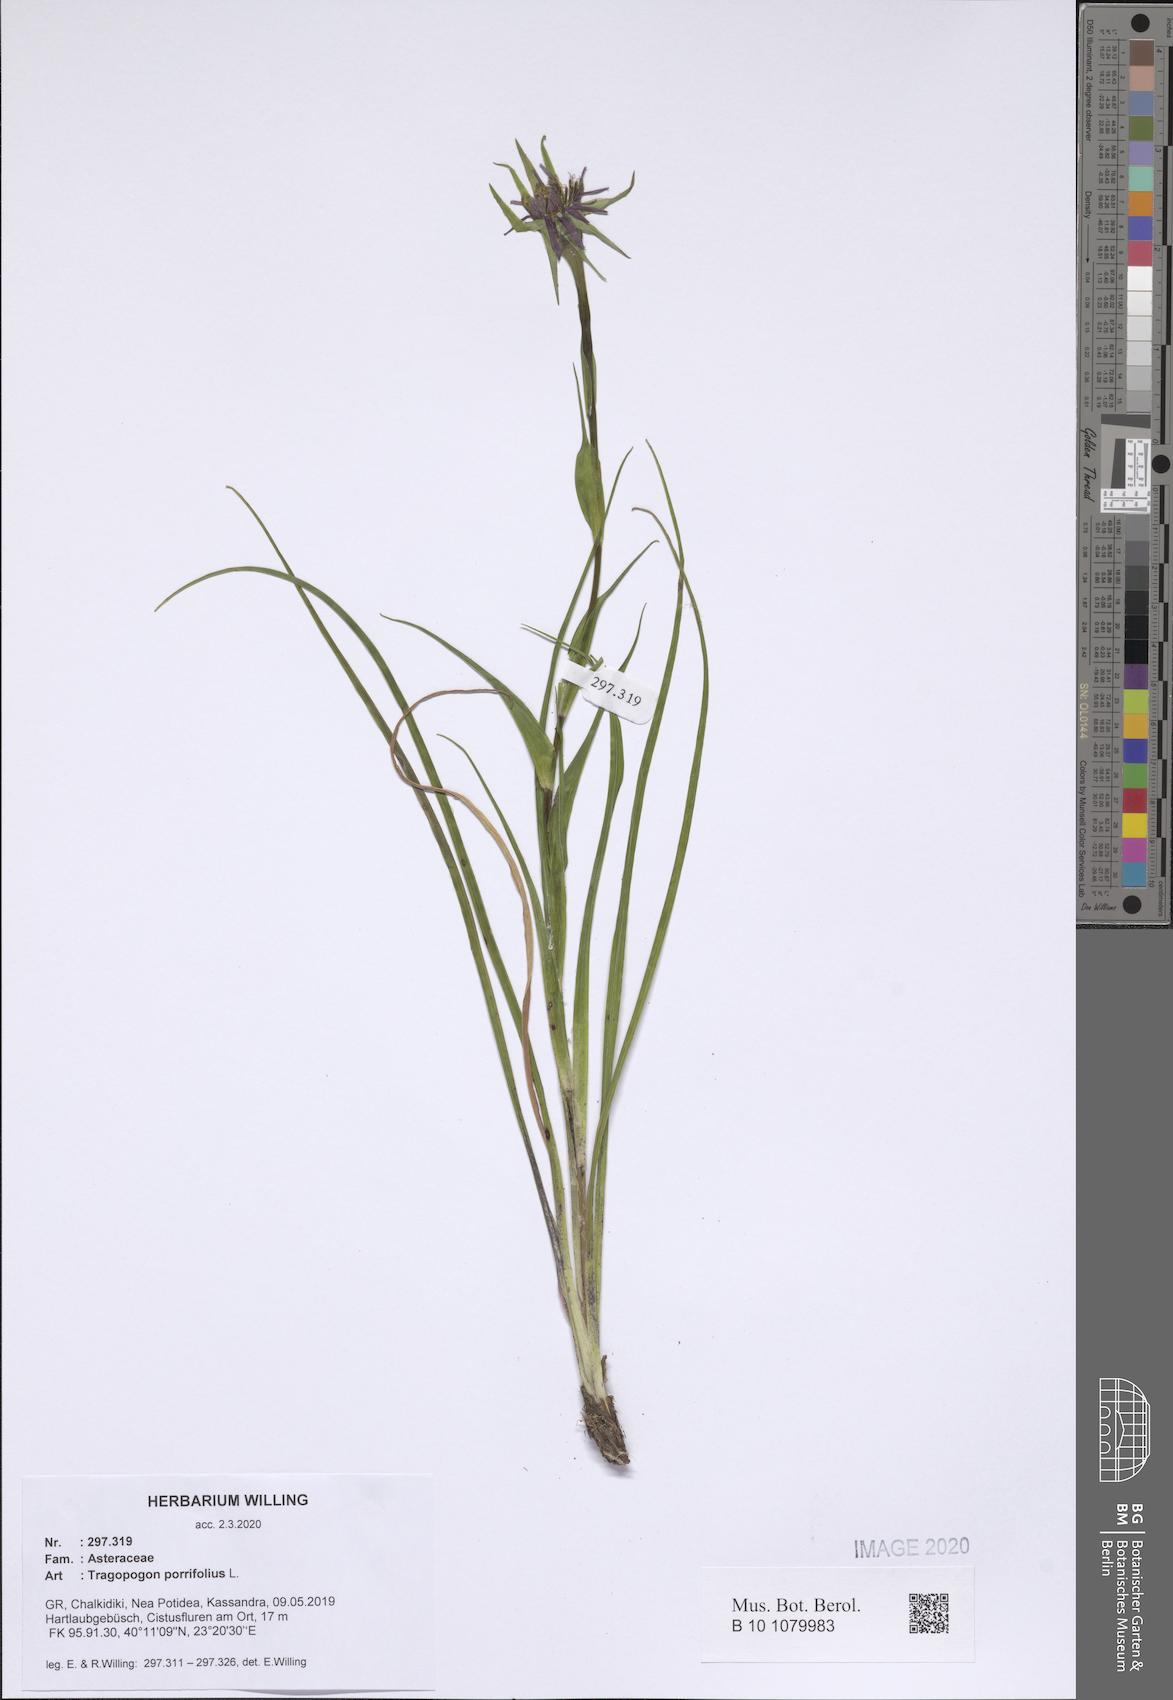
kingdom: Plantae
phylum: Tracheophyta
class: Magnoliopsida
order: Asterales
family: Asteraceae
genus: Tragopogon
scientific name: Tragopogon porrifolius
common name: Salsify
